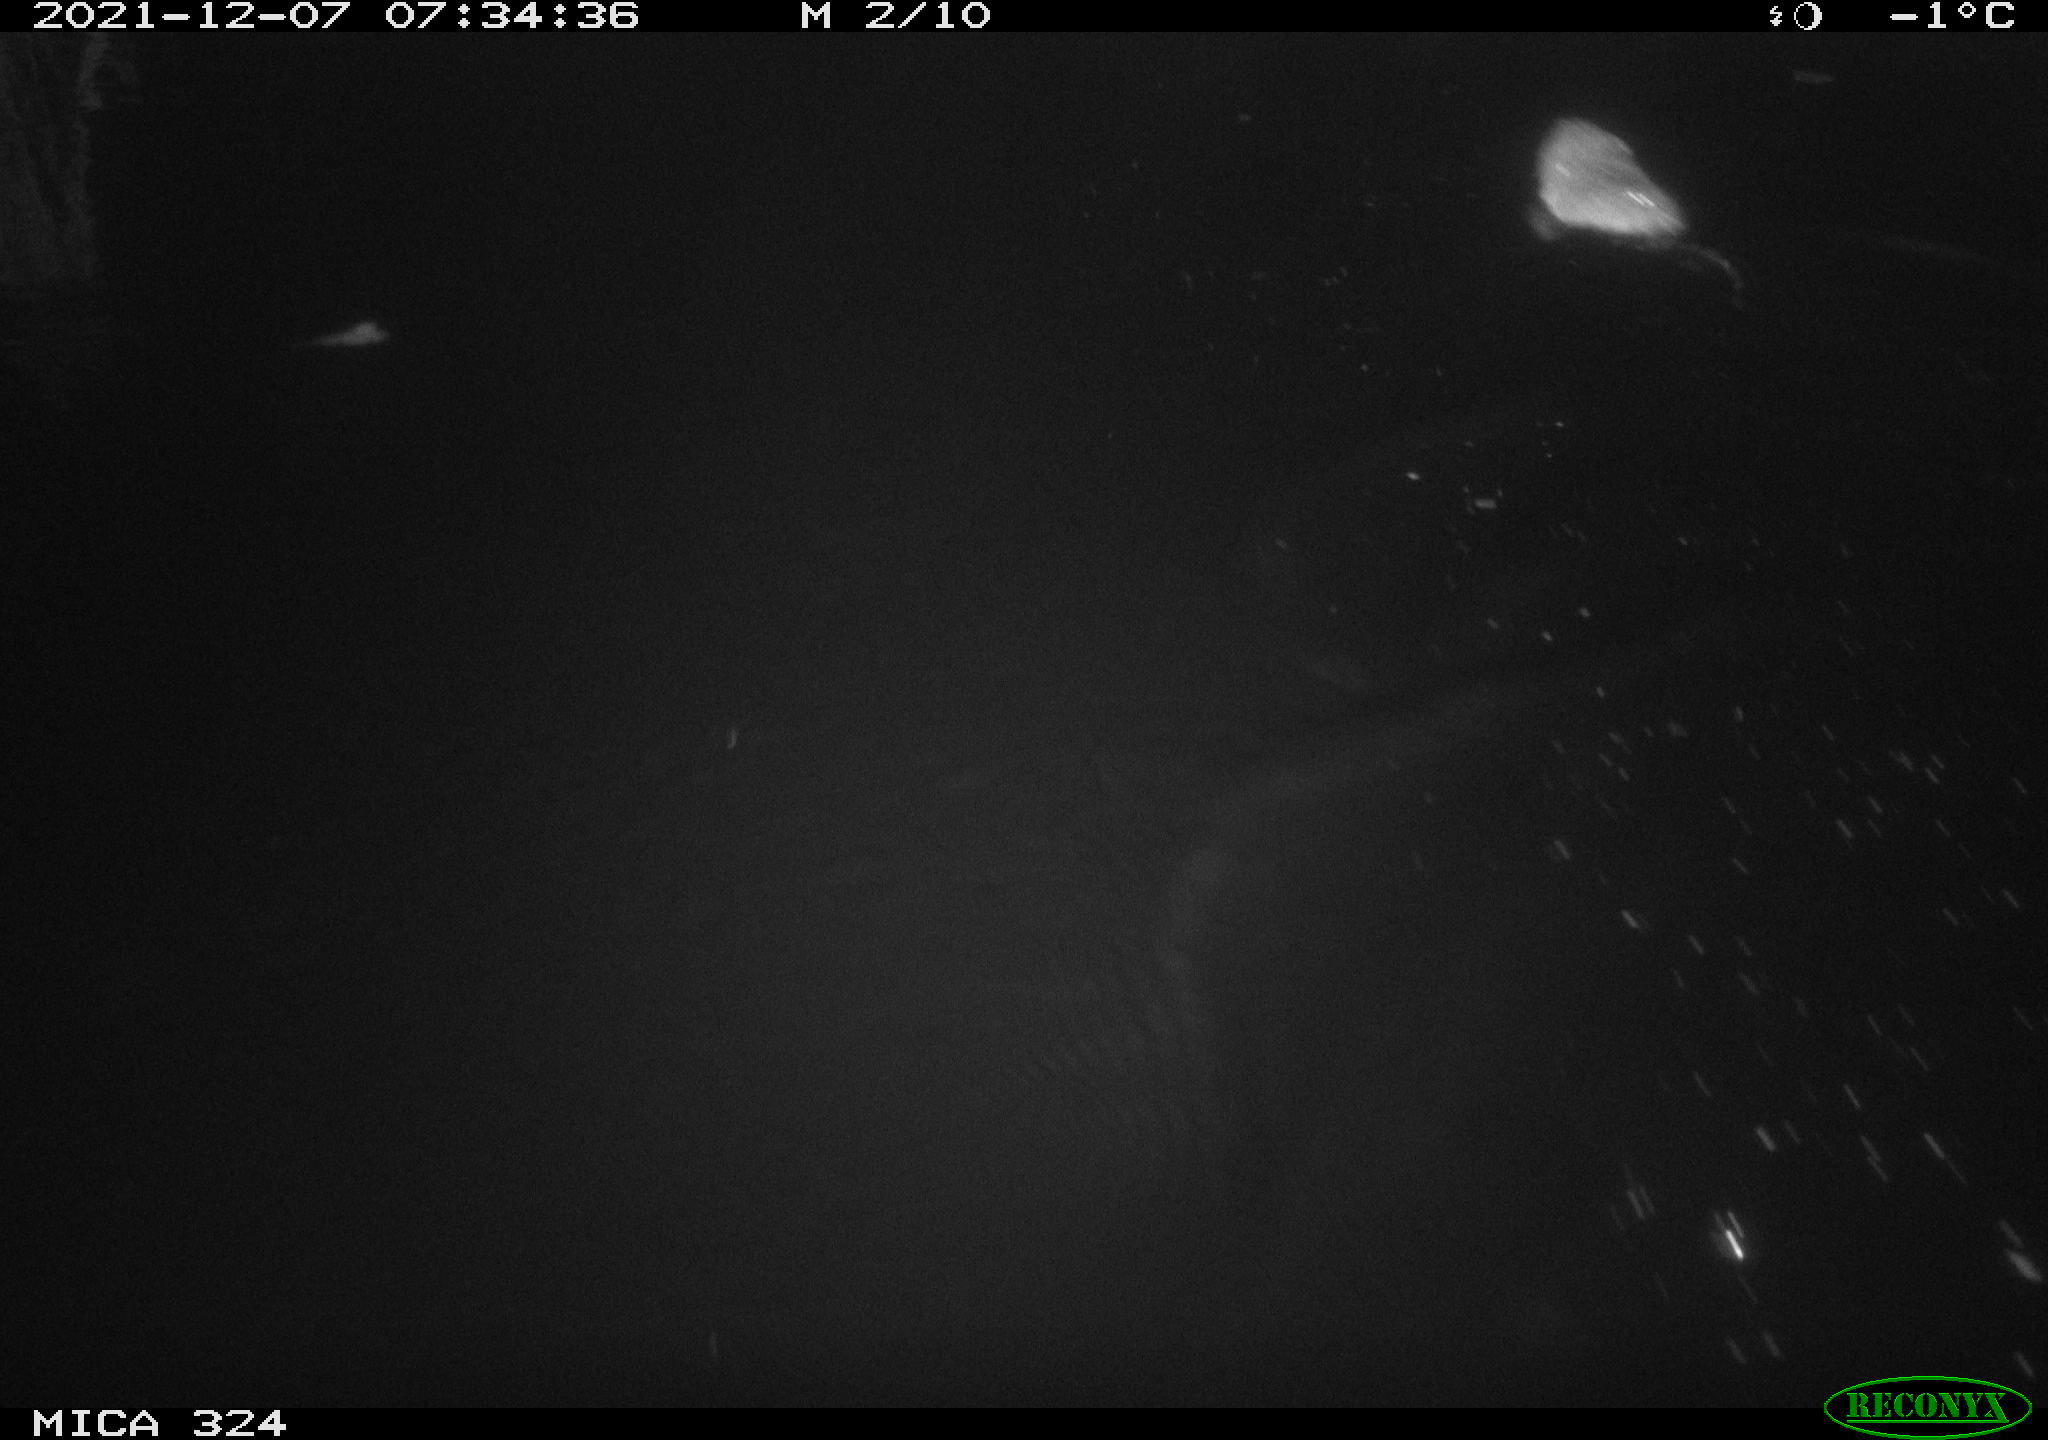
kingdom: Animalia
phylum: Chordata
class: Mammalia
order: Rodentia
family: Cricetidae
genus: Ondatra
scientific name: Ondatra zibethicus
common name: Muskrat
